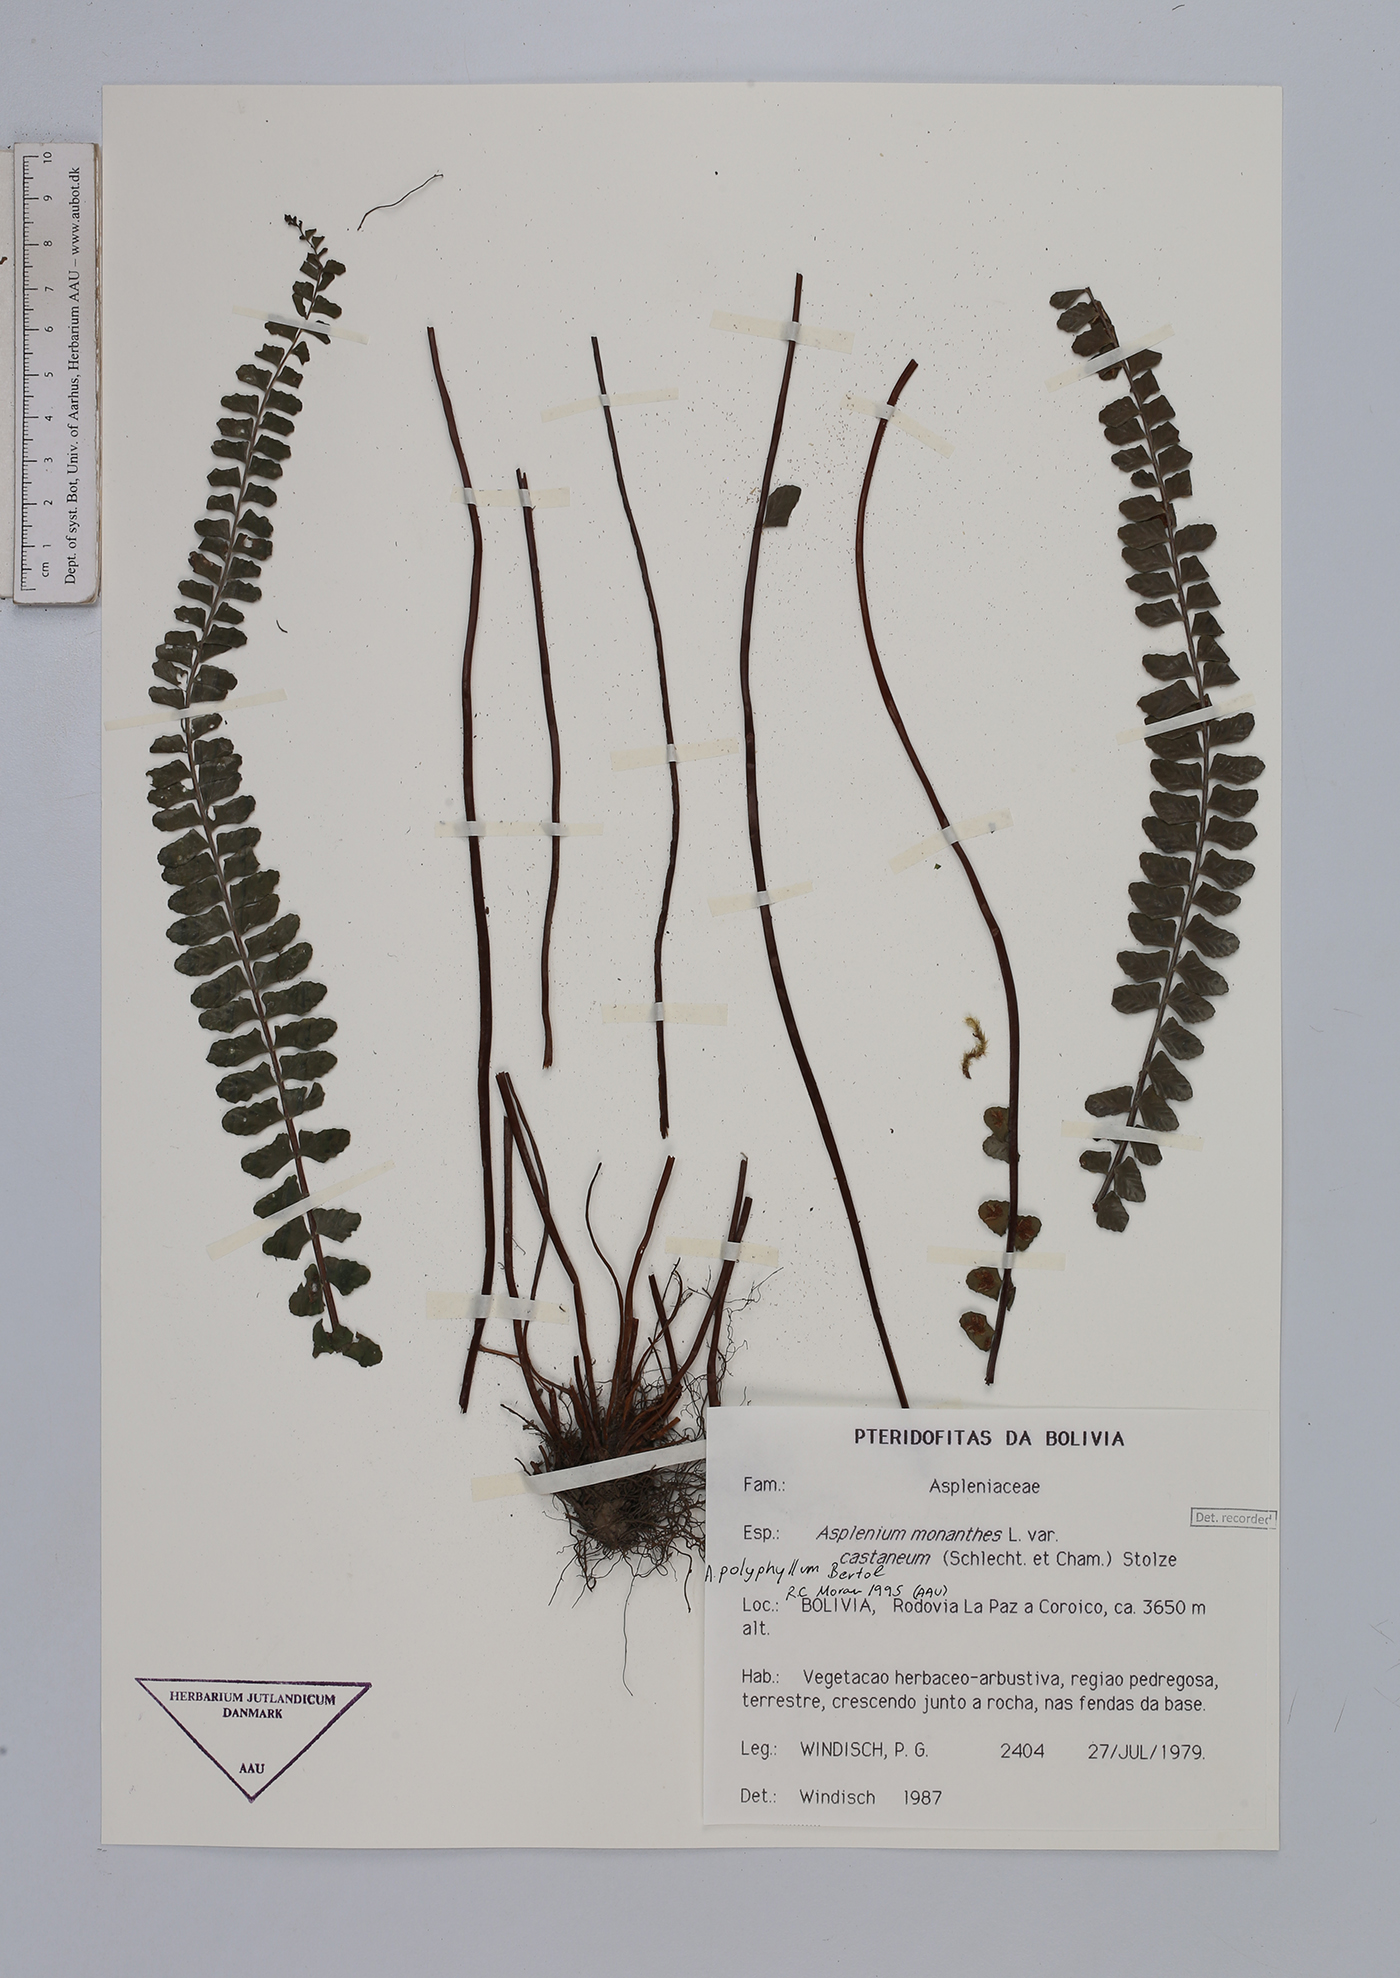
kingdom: Plantae
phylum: Tracheophyta
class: Polypodiopsida
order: Polypodiales
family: Aspleniaceae
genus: Asplenium
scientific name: Asplenium polyphyllum
